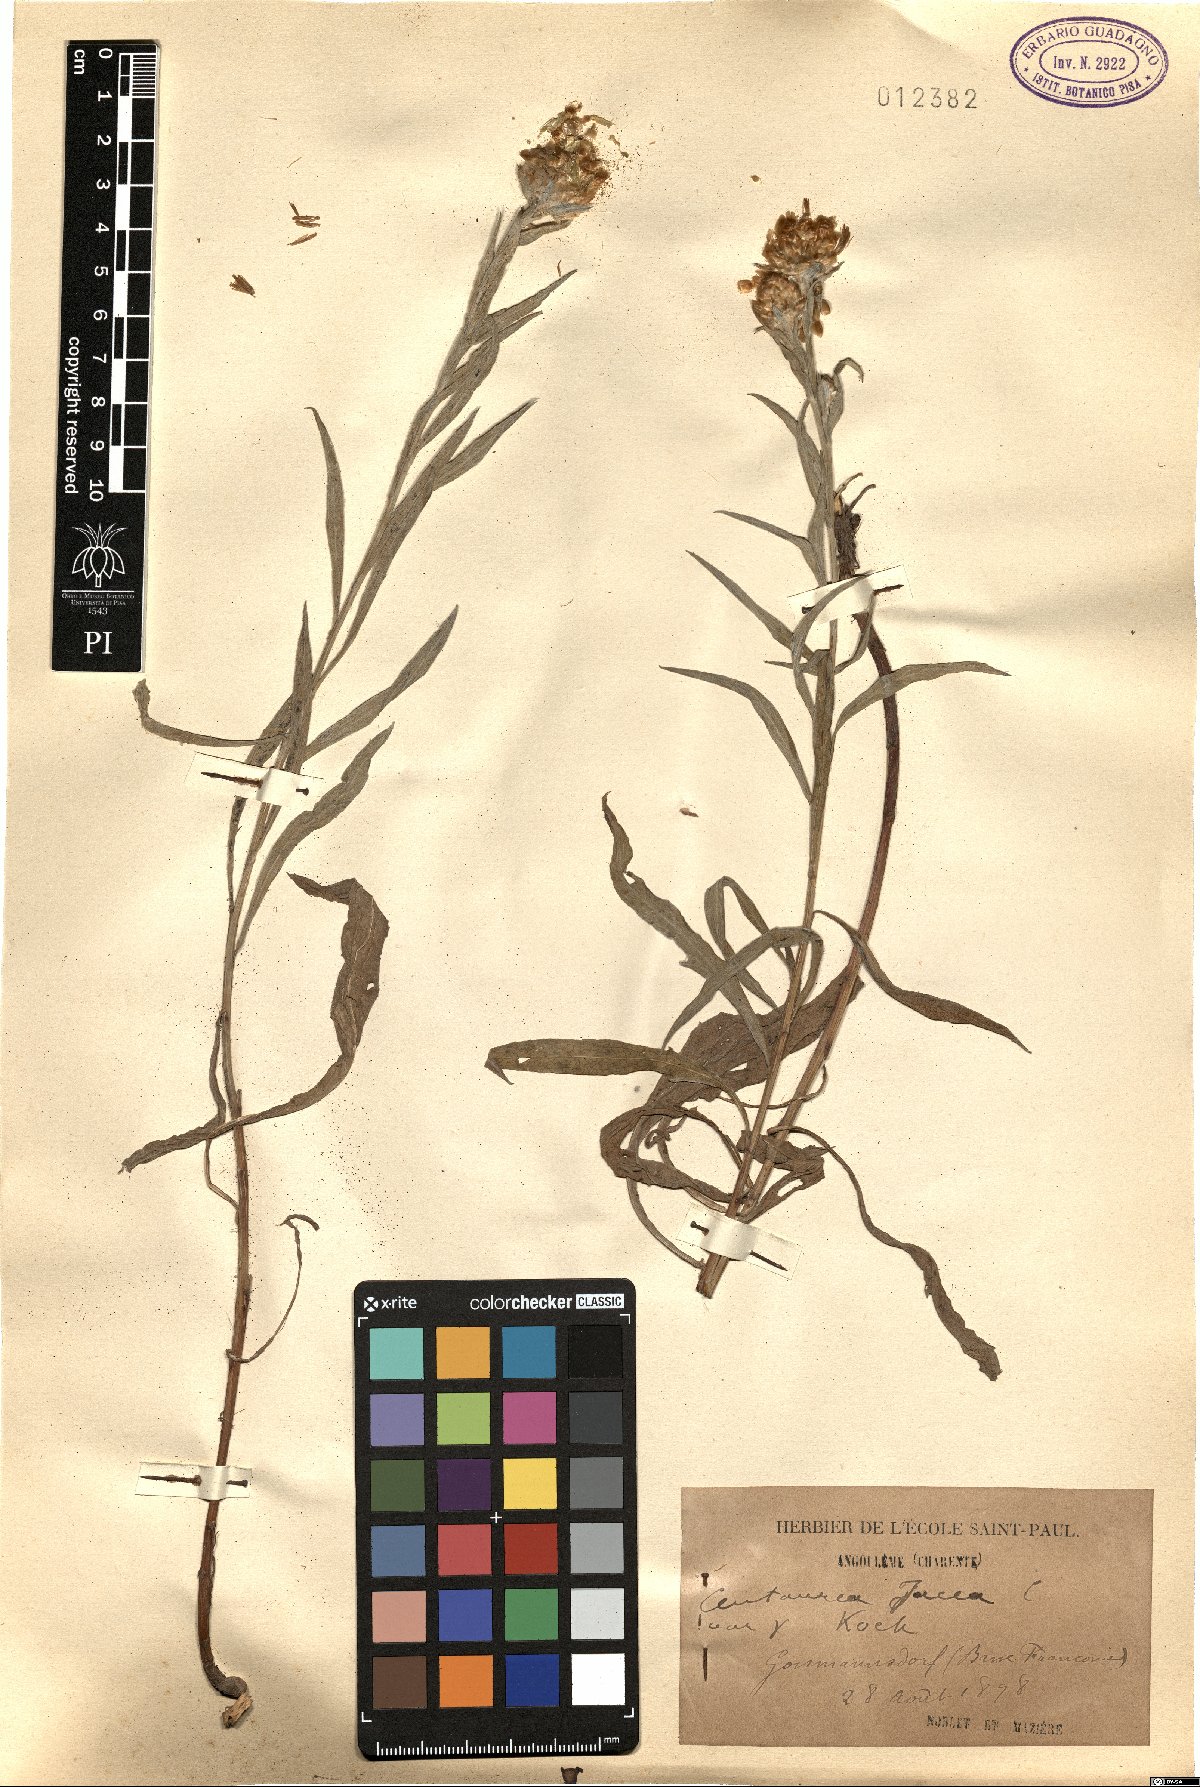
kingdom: Plantae
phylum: Tracheophyta
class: Magnoliopsida
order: Asterales
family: Asteraceae
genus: Centaurea
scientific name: Centaurea jacea
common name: Brown knapweed
